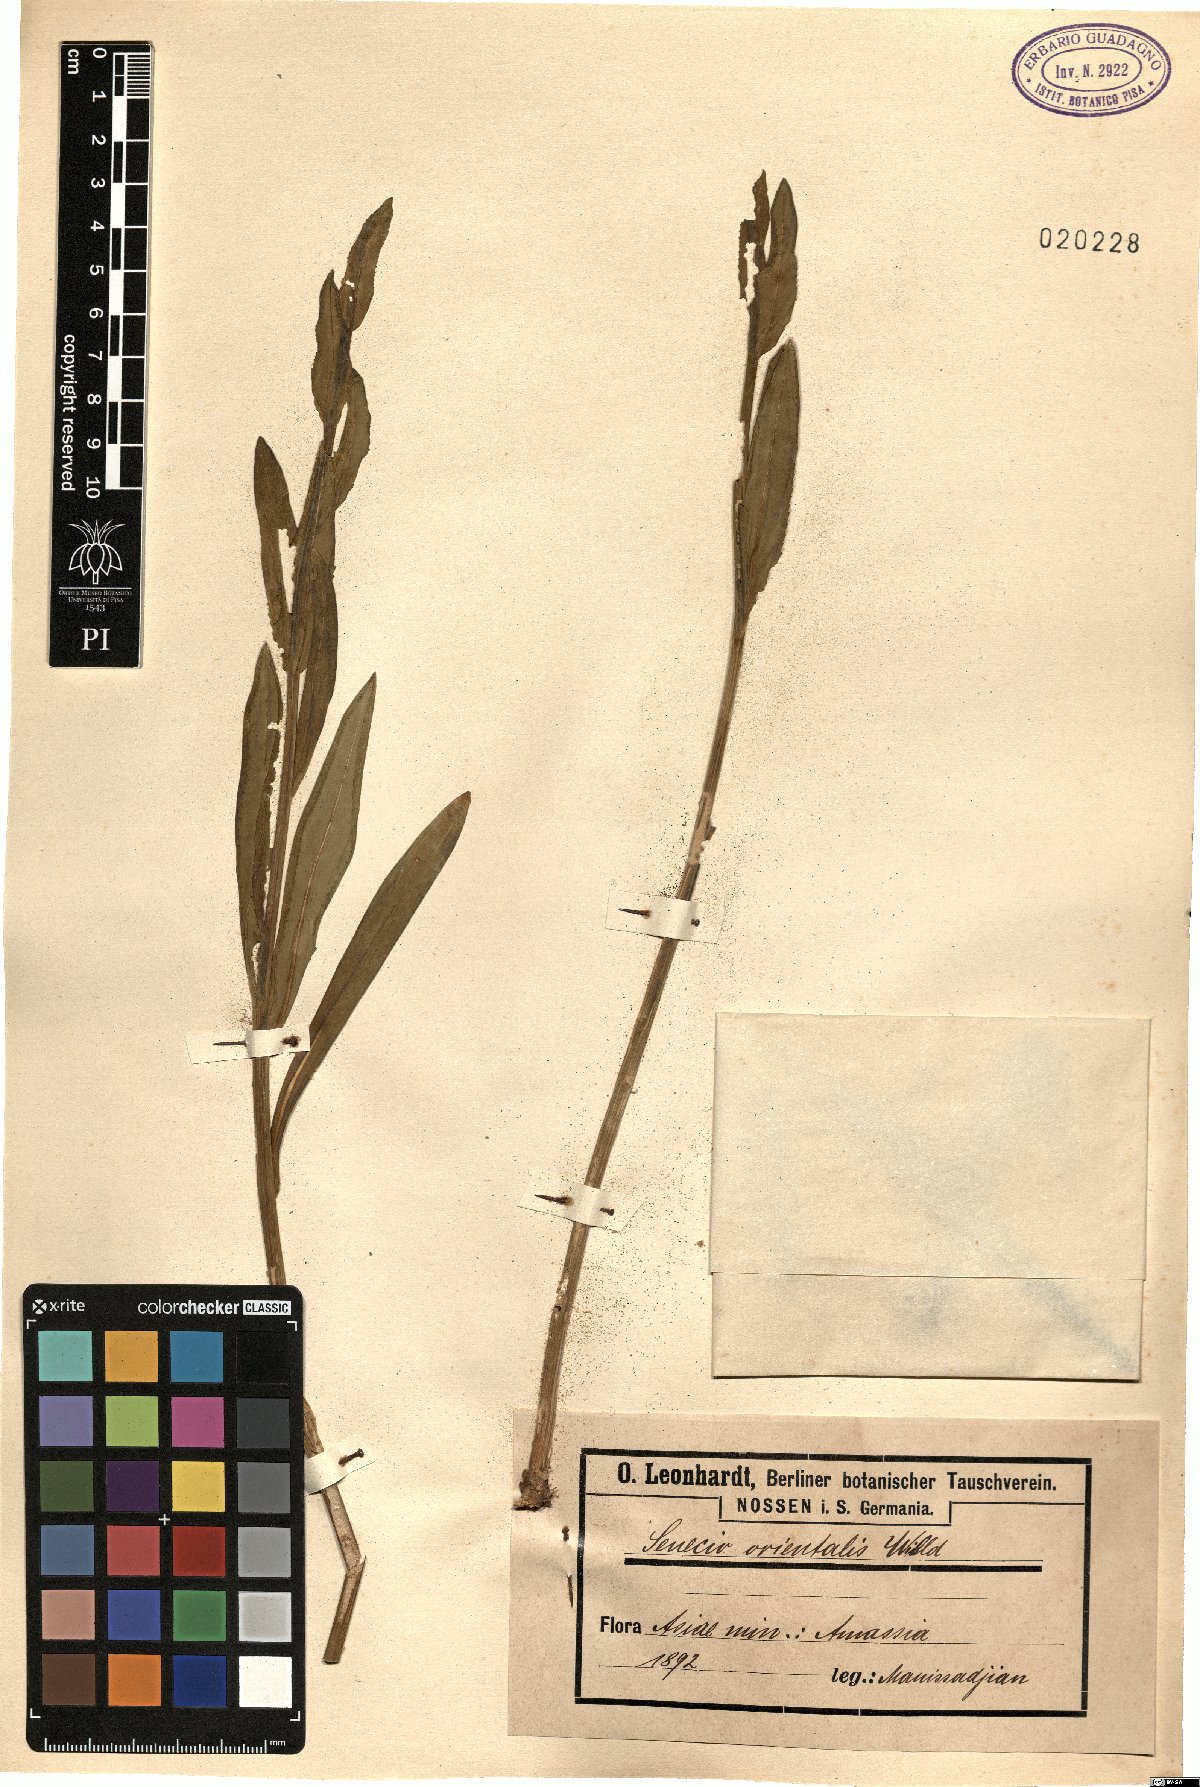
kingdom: Plantae
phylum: Tracheophyta
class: Magnoliopsida
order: Asterales
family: Asteraceae
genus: Senecio
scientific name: Senecio pseudoorientalis
